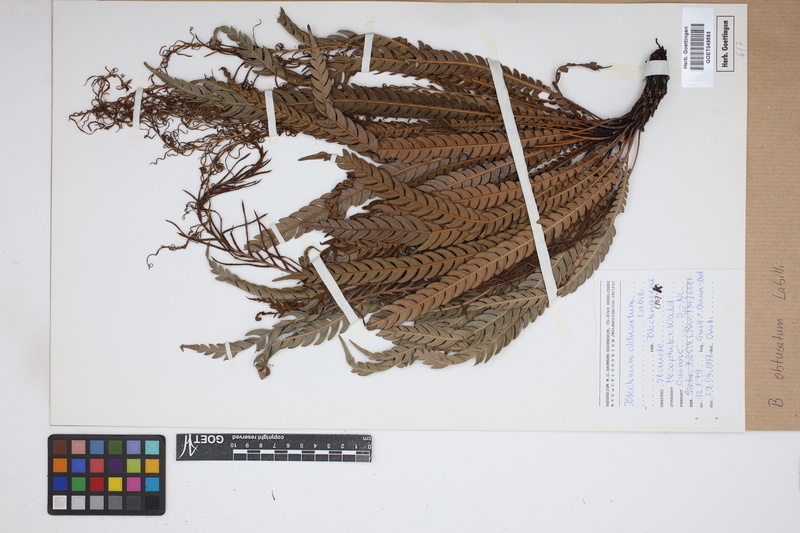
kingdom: Plantae
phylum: Tracheophyta
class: Polypodiopsida
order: Polypodiales
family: Blechnaceae
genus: Oceaniopteris
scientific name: Oceaniopteris obtusata
